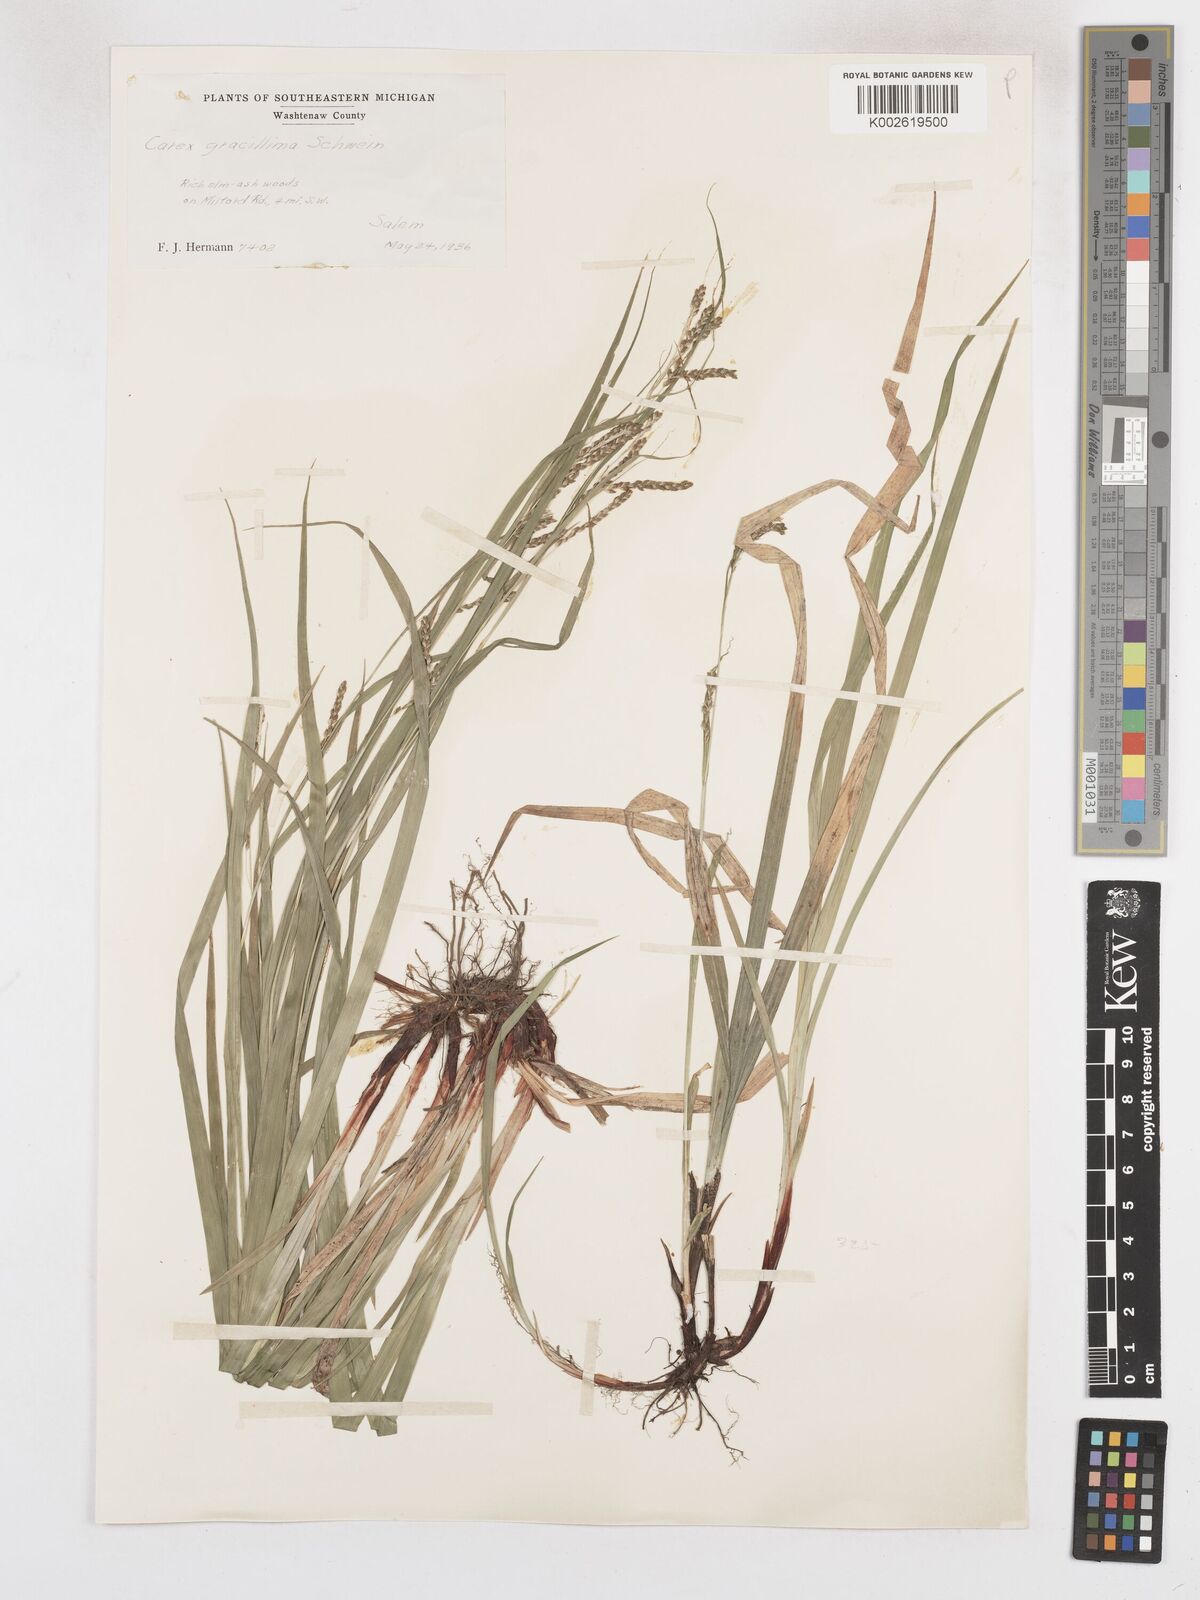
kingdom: Plantae
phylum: Tracheophyta
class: Liliopsida
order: Poales
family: Cyperaceae
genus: Carex
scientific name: Carex gracillima
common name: Graceful sedge
